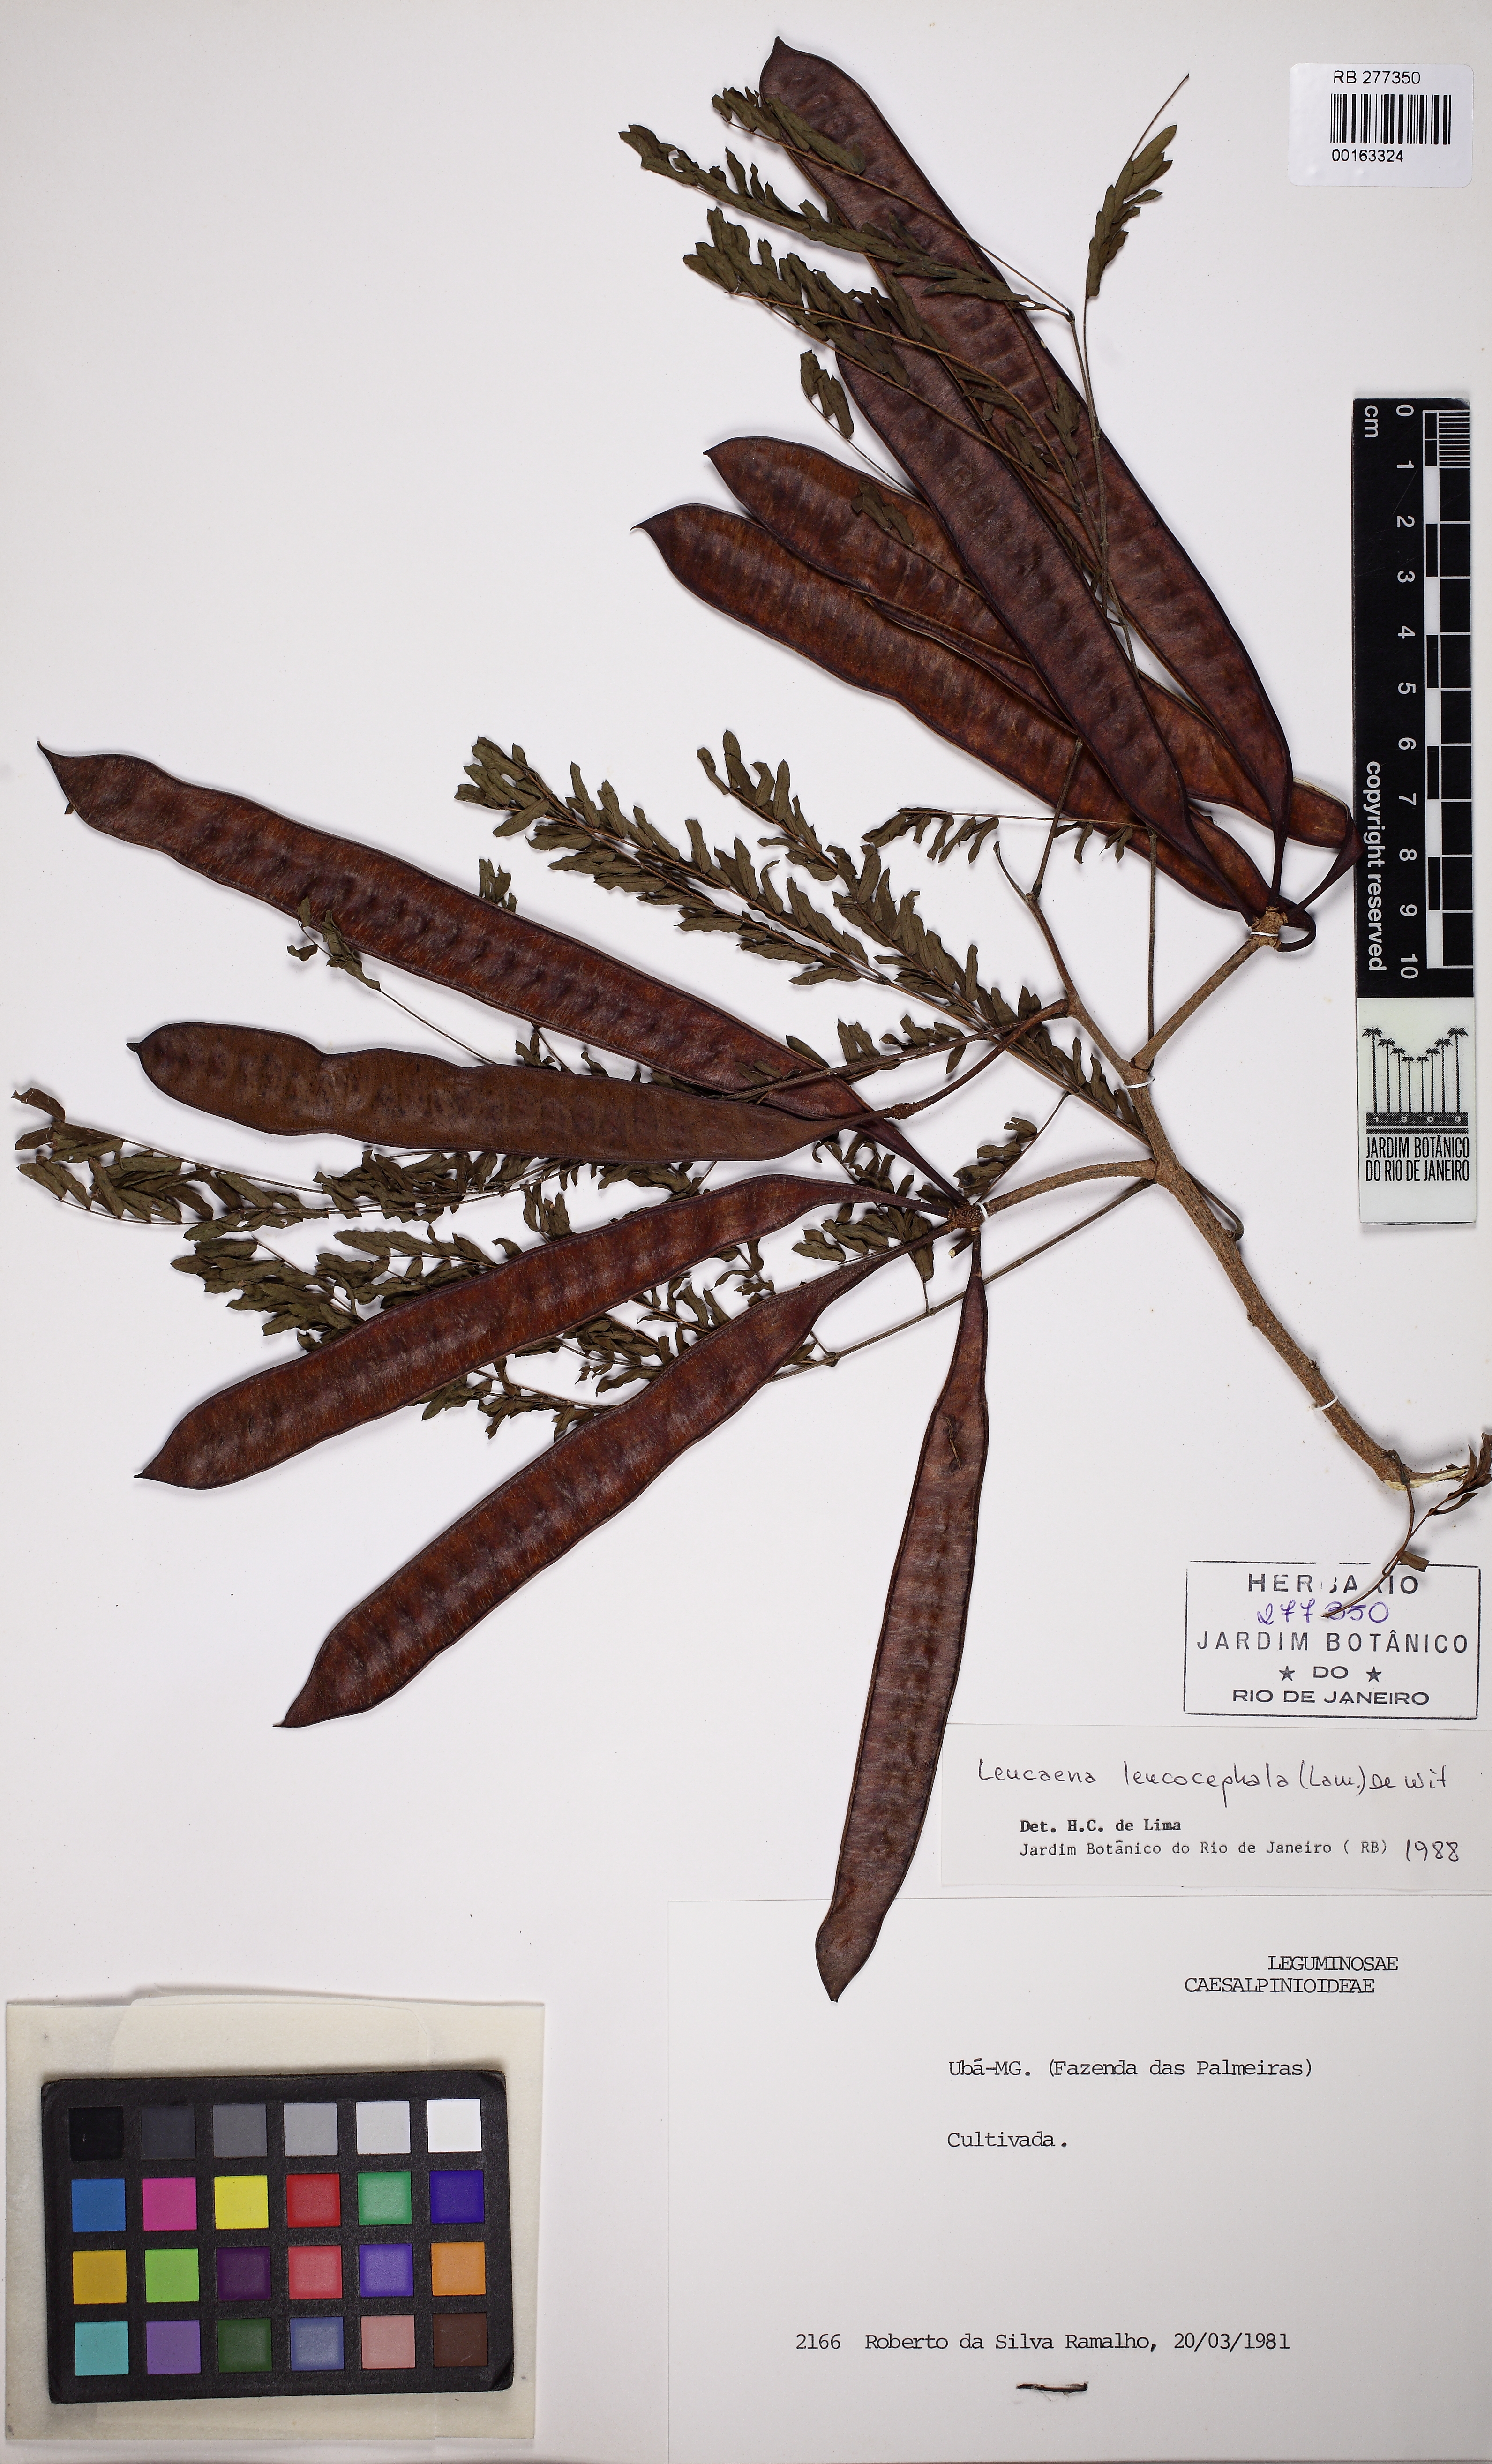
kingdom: Plantae
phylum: Tracheophyta
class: Magnoliopsida
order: Fabales
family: Fabaceae
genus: Leucaena
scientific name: Leucaena leucocephala
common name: White leadtree
